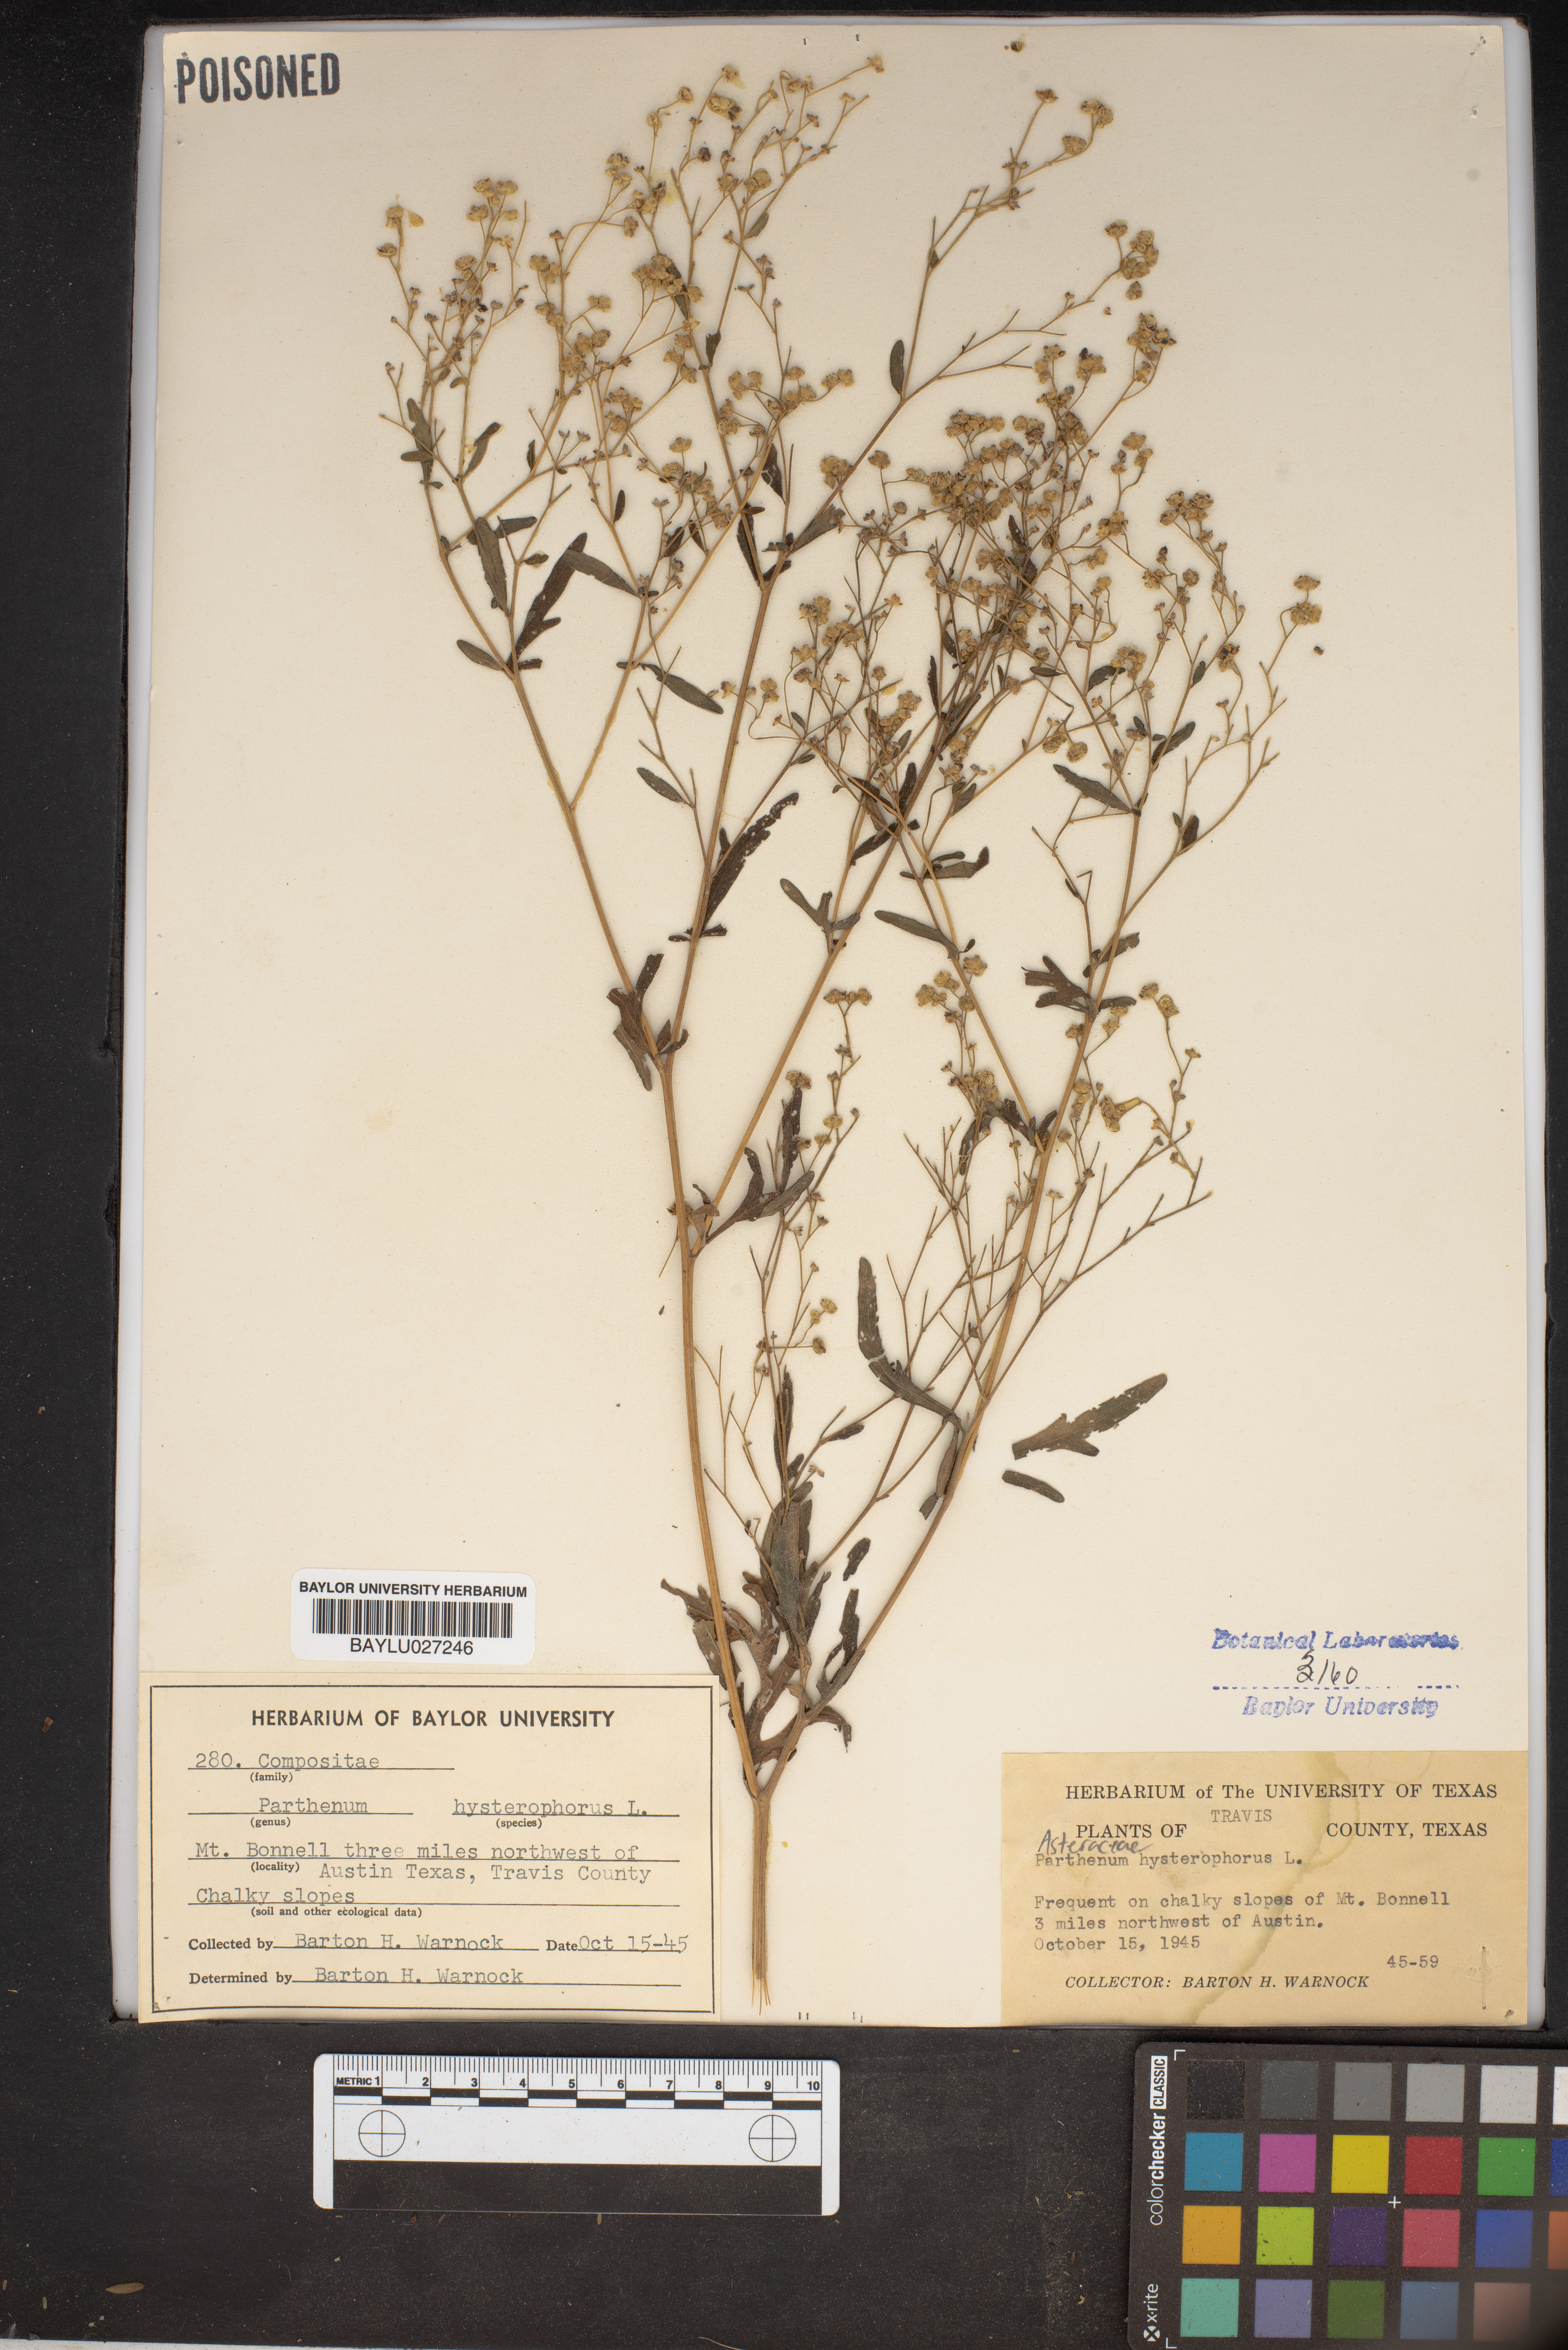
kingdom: Plantae
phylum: Tracheophyta
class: Magnoliopsida
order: Asterales
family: Asteraceae
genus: Parthenium
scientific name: Parthenium hysterophorus
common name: Santa maria feverfew
